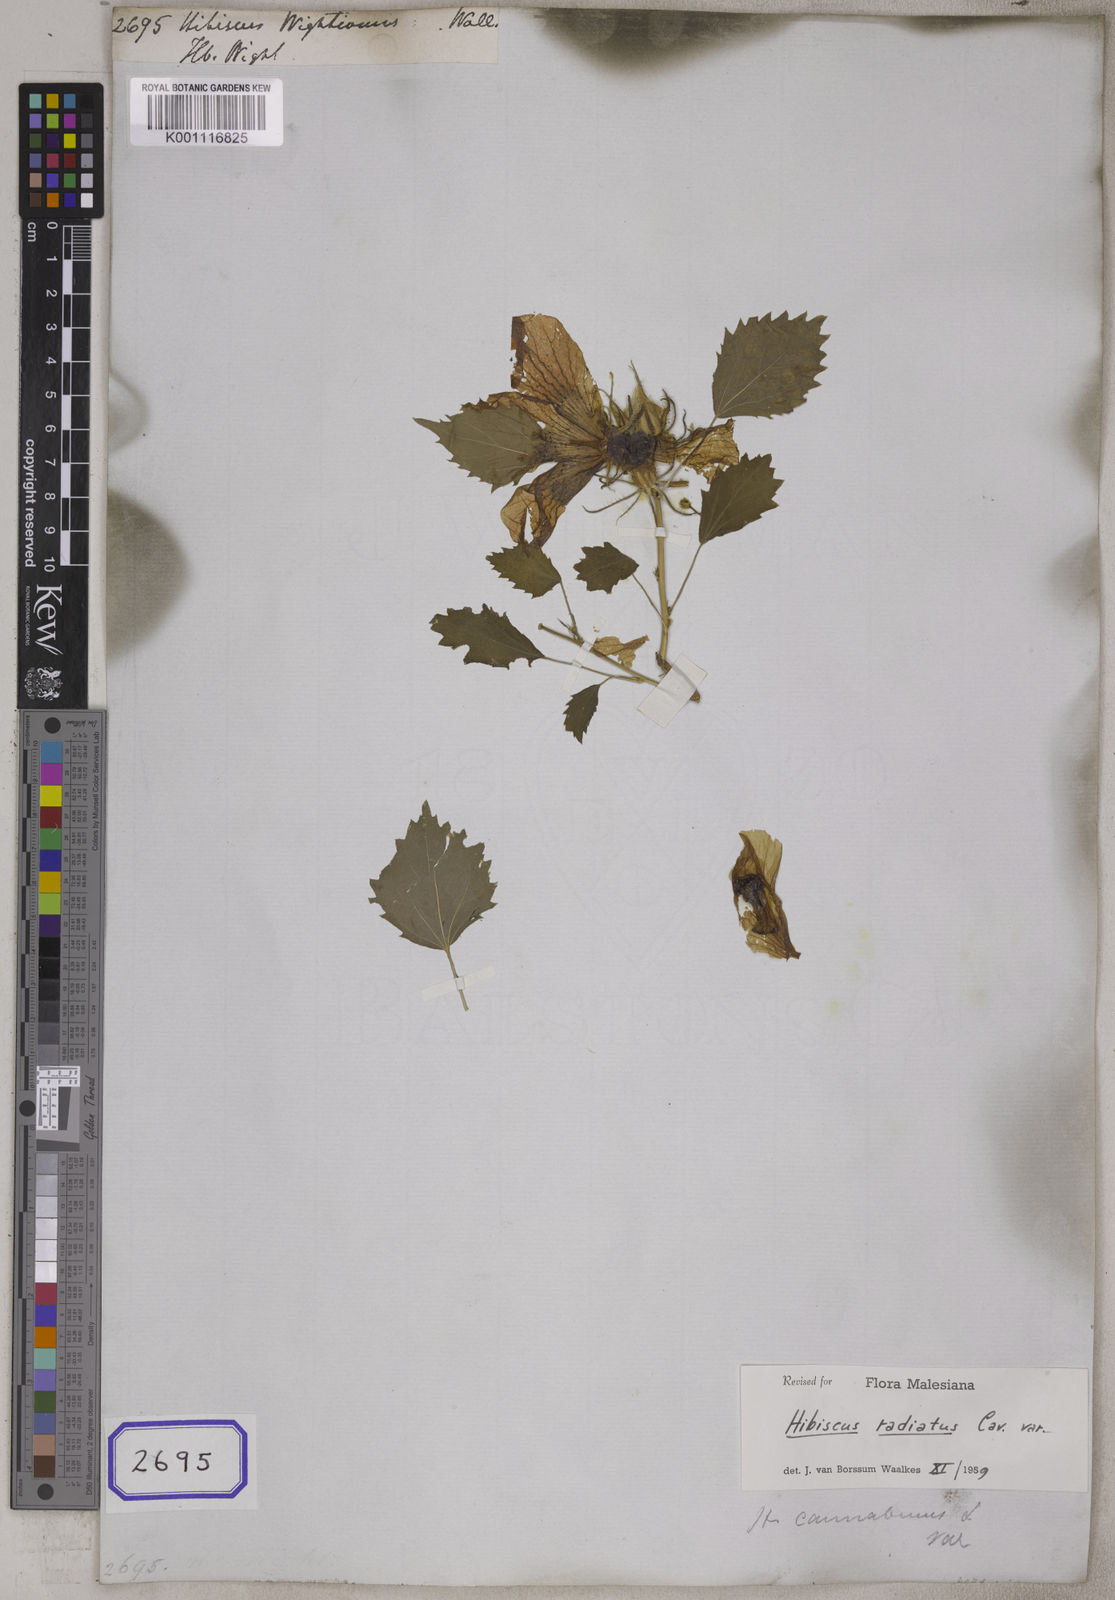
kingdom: Plantae
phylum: Tracheophyta
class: Magnoliopsida
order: Malvales
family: Malvaceae
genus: Hibiscus
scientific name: Hibiscus cannabinus
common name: Brown indianhemp
